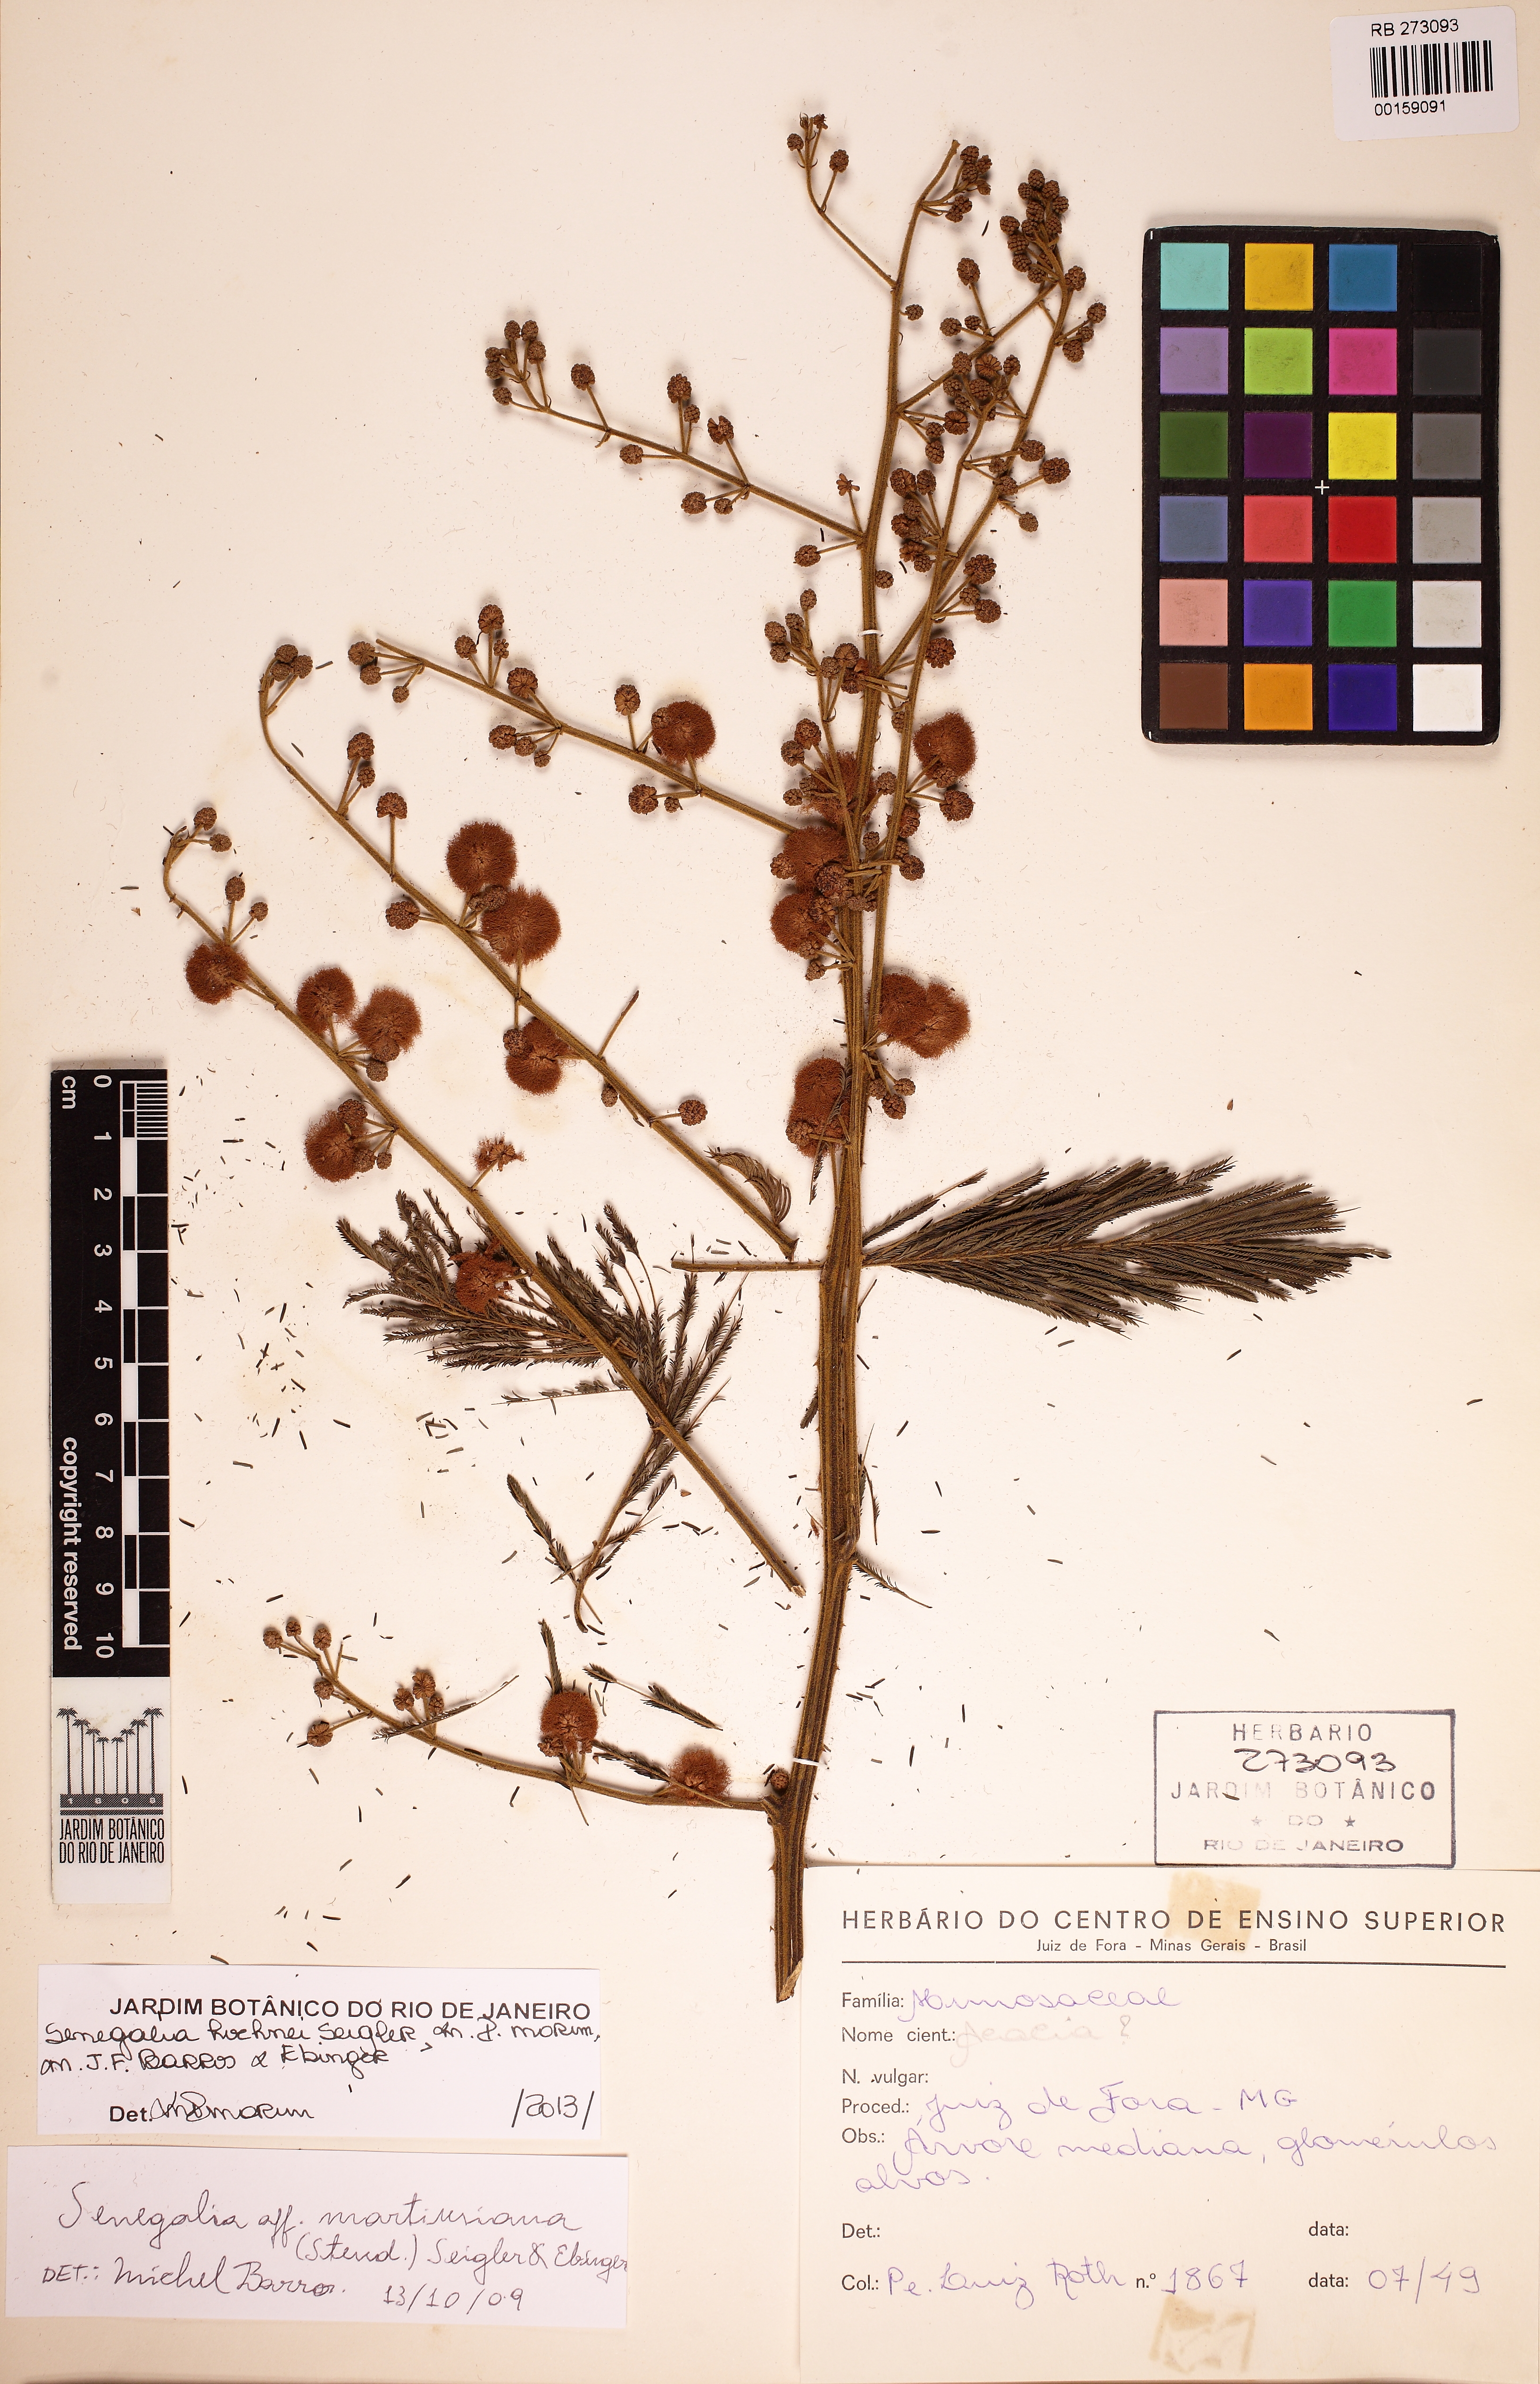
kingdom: Plantae
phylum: Tracheophyta
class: Magnoliopsida
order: Fabales
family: Fabaceae
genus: Senegalia
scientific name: Senegalia hoehnei
